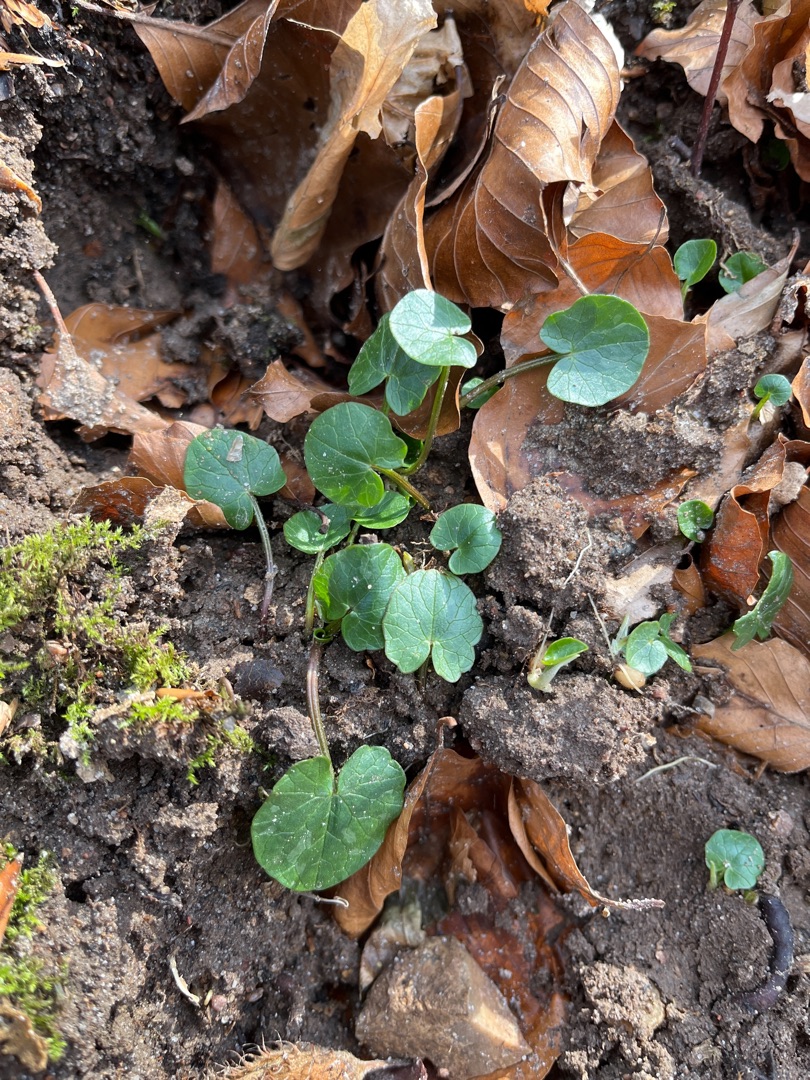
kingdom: Plantae
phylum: Tracheophyta
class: Magnoliopsida
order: Ranunculales
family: Ranunculaceae
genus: Ficaria
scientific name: Ficaria verna
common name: Vorterod
